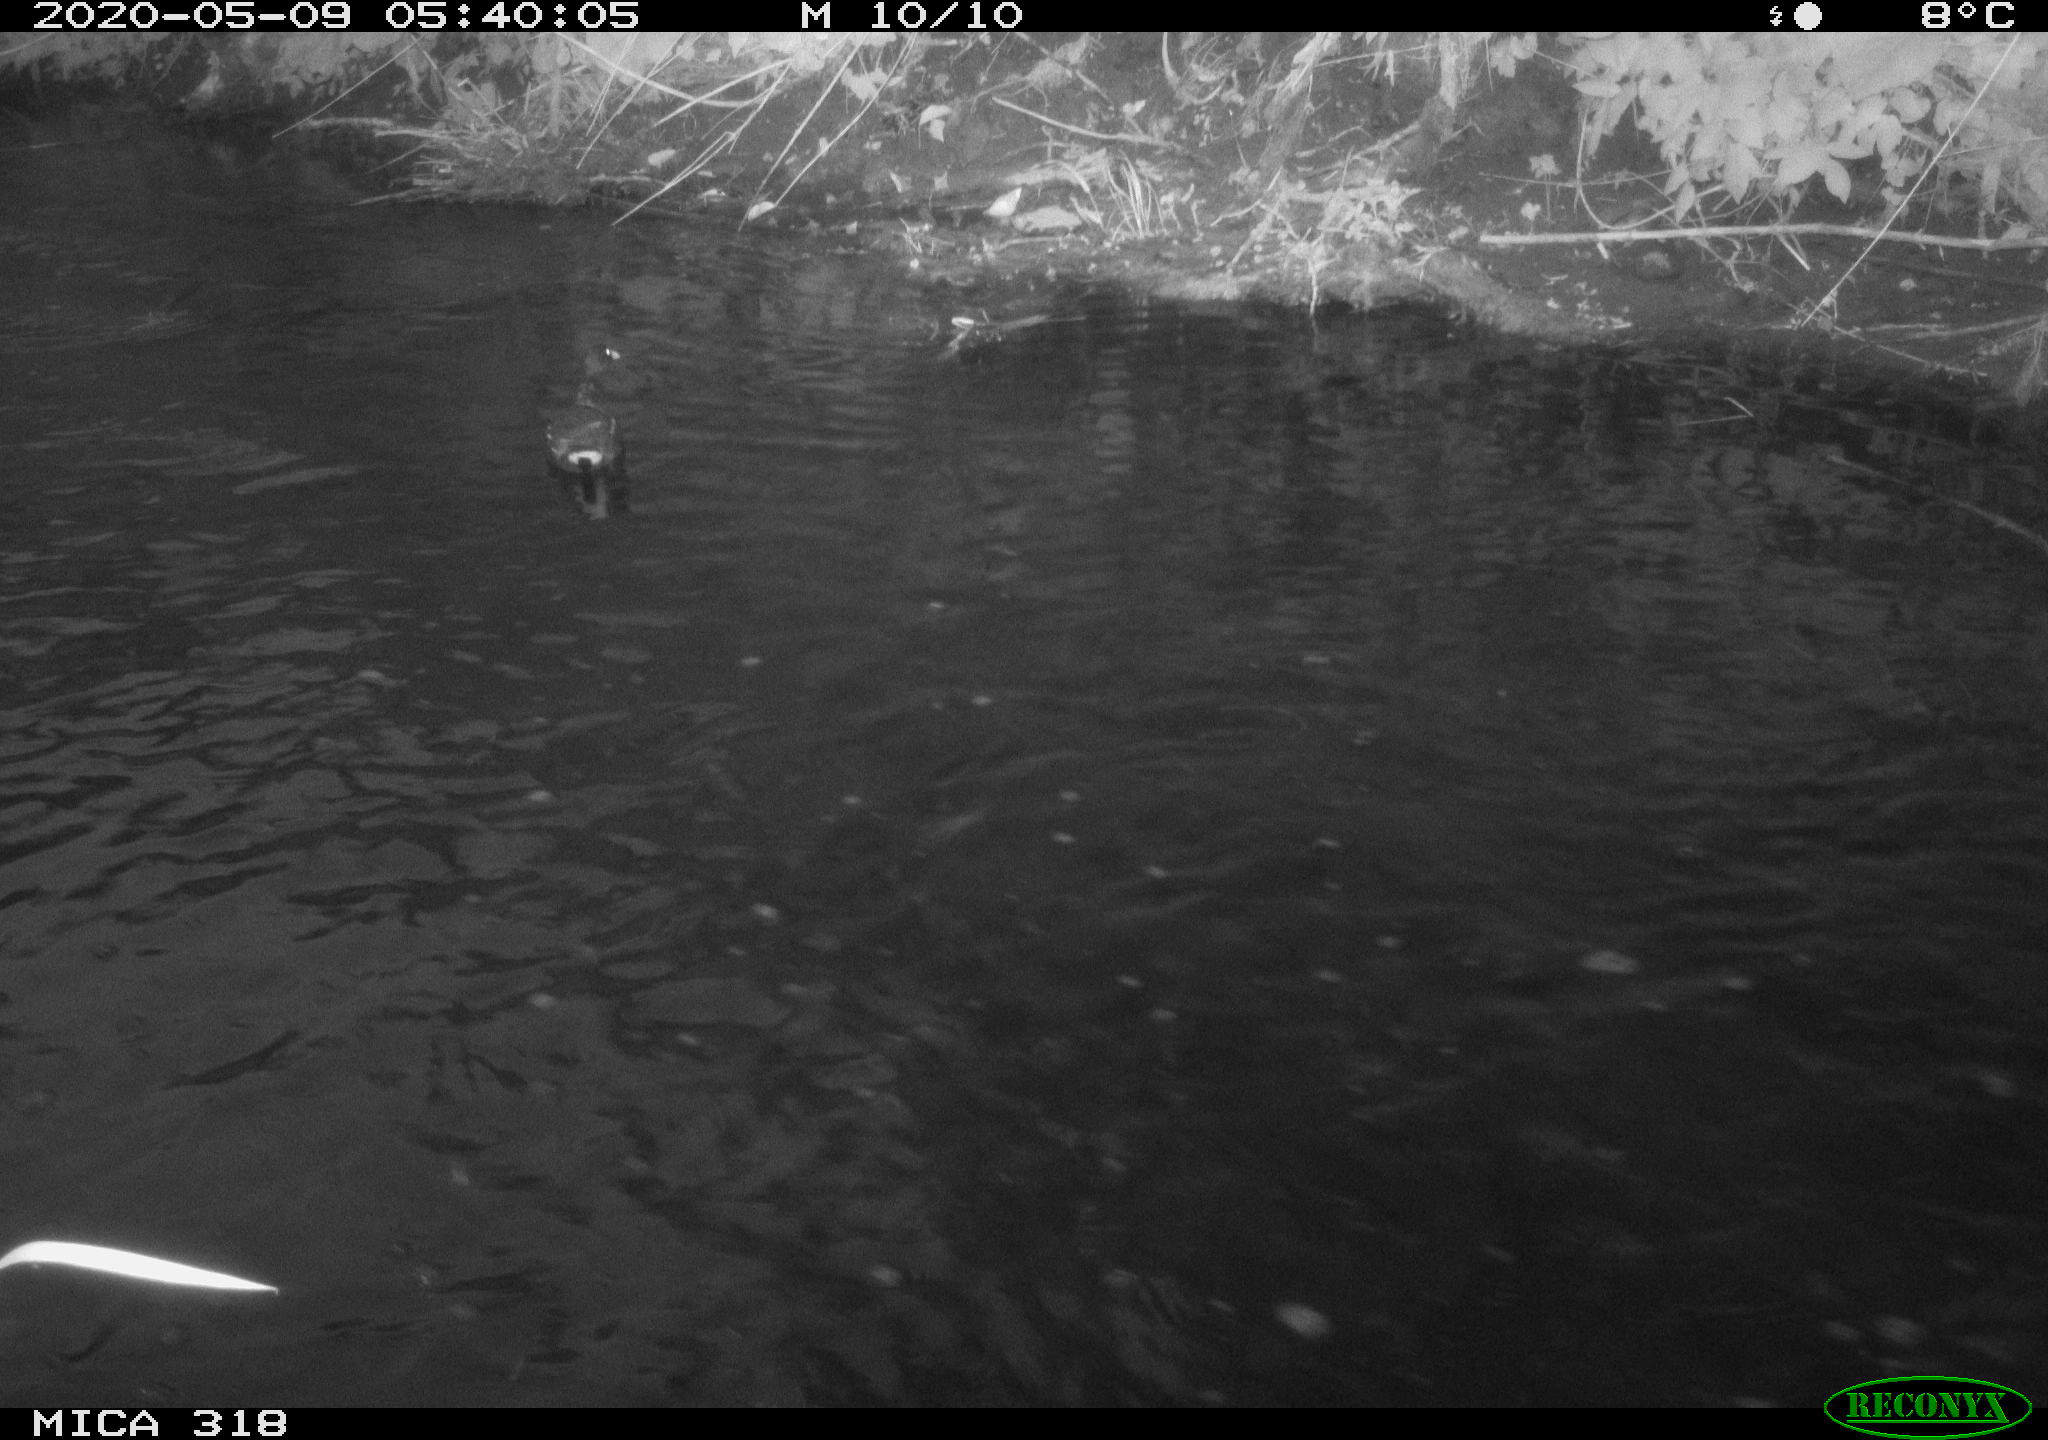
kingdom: Animalia
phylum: Chordata
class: Aves
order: Gruiformes
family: Rallidae
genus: Gallinula
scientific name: Gallinula chloropus
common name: Common moorhen
